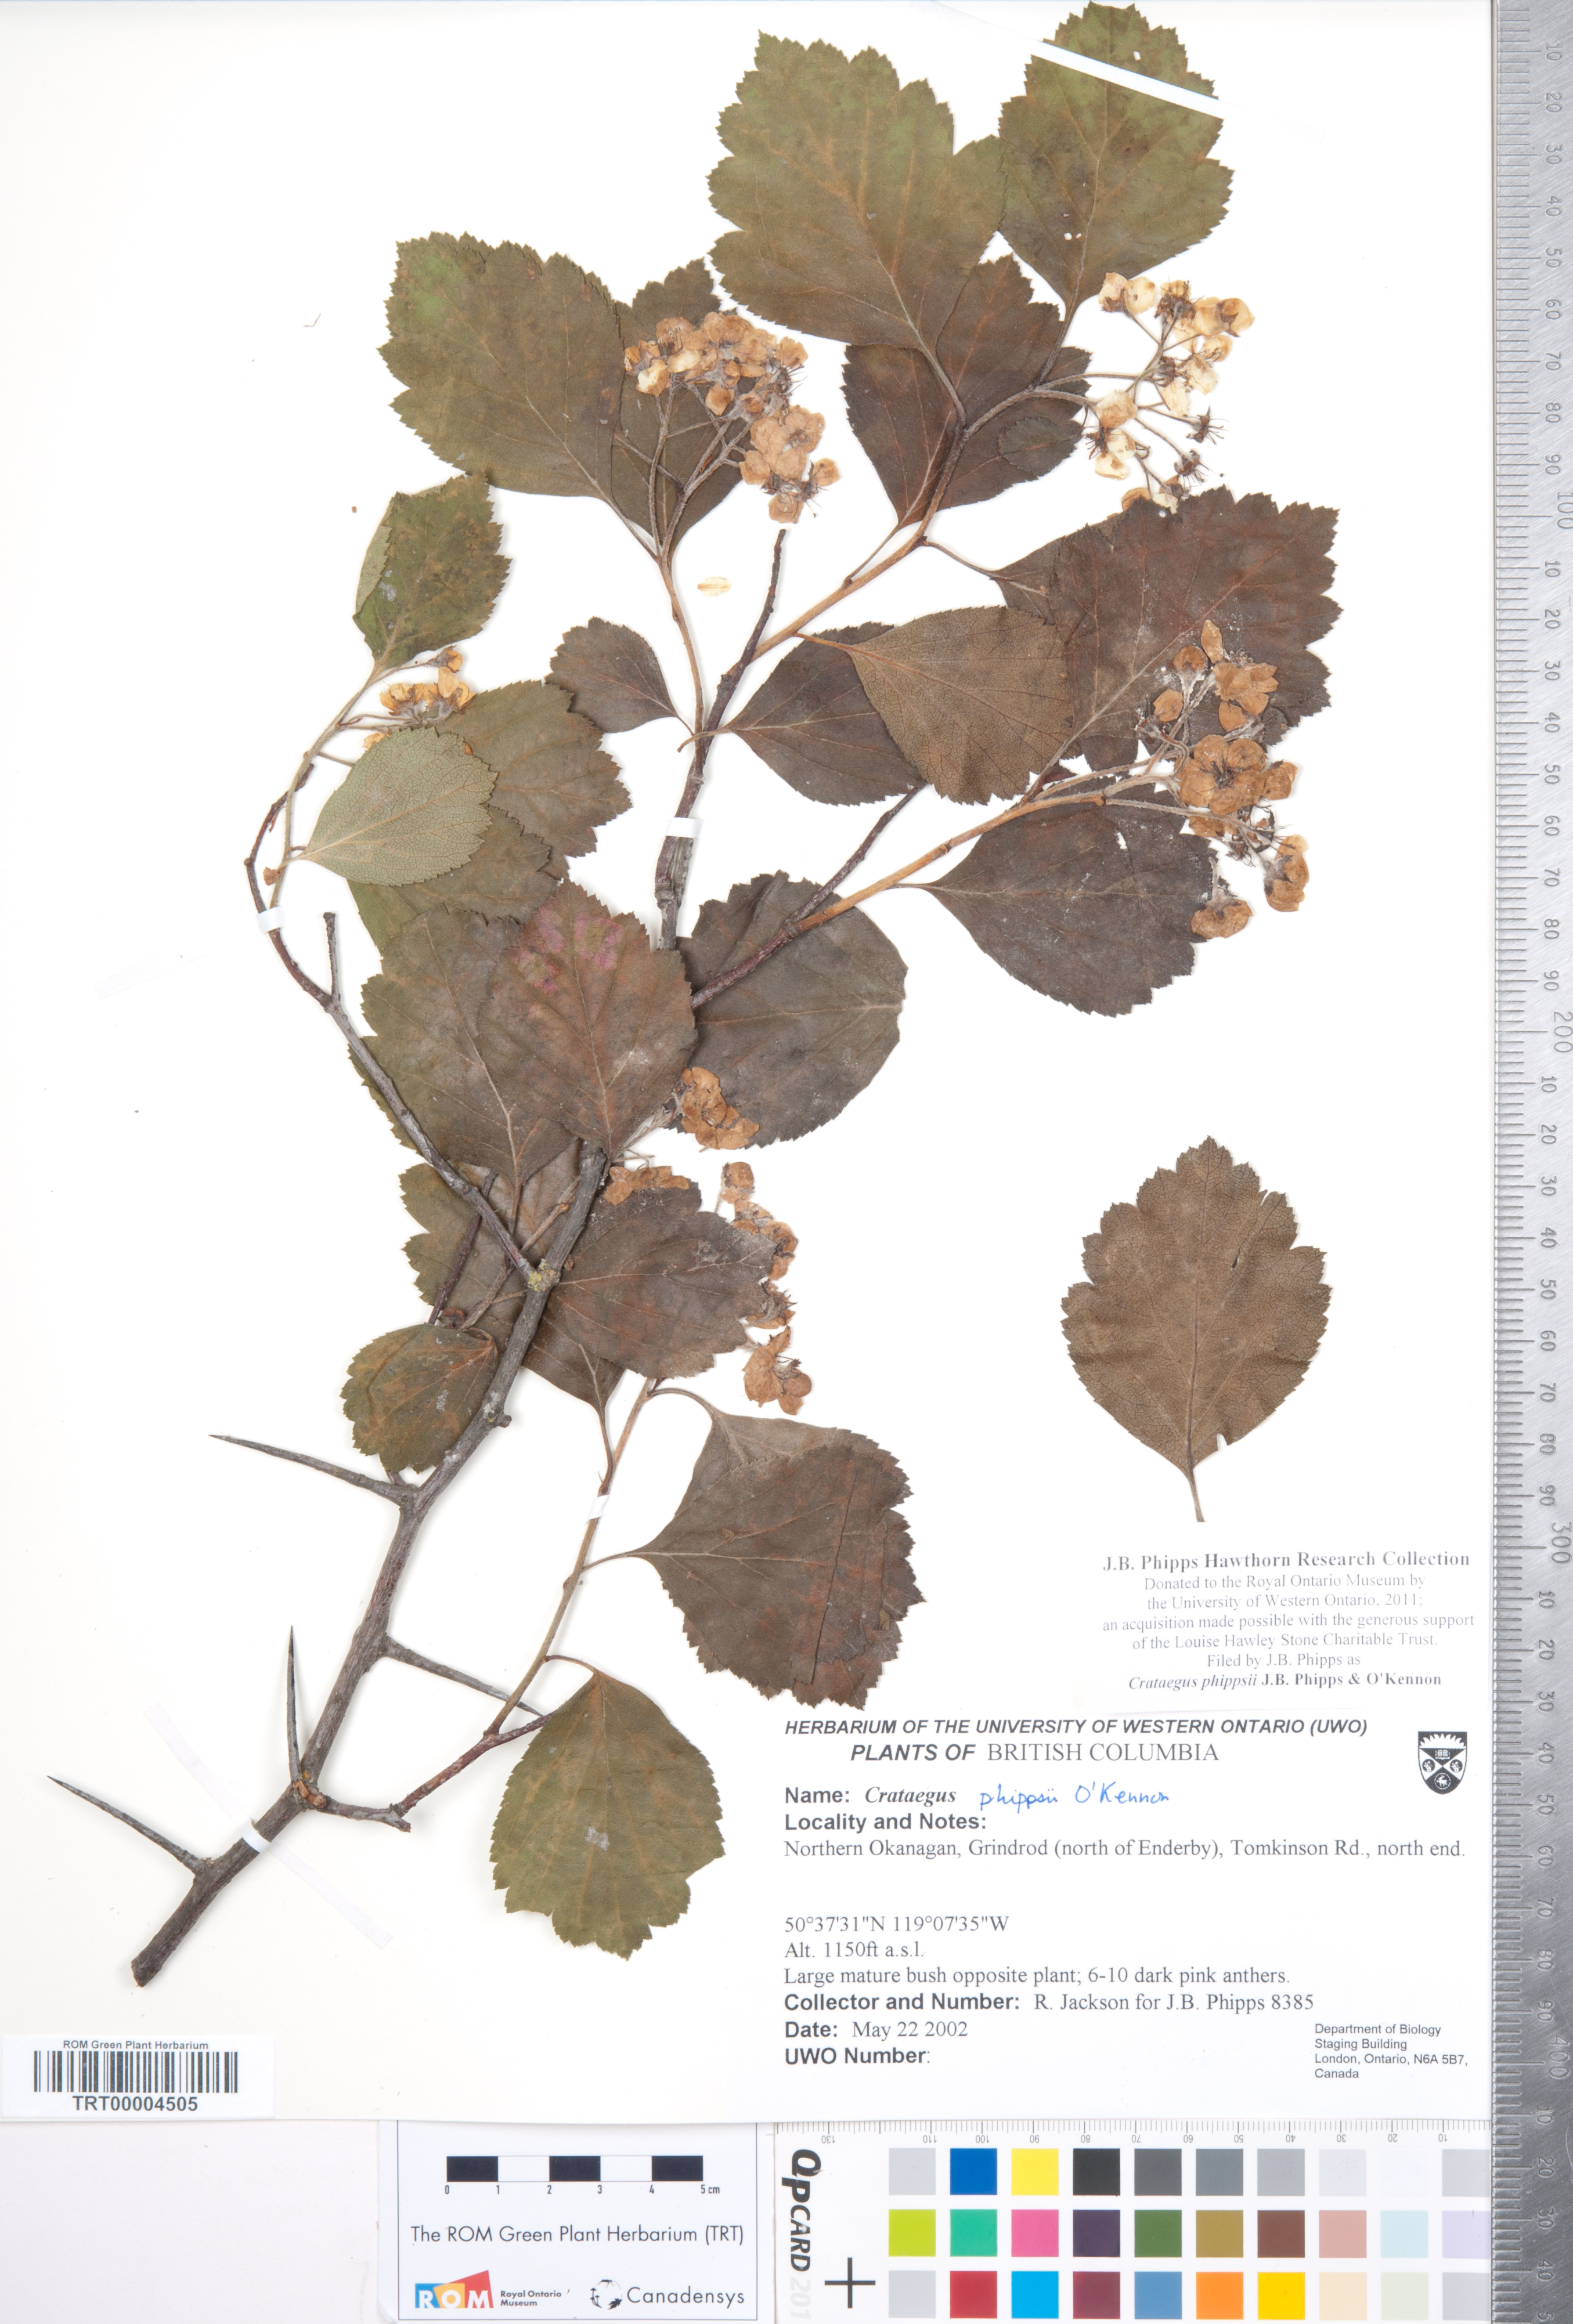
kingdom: Plantae
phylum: Tracheophyta
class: Magnoliopsida
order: Rosales
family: Rosaceae
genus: Crataegus
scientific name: Crataegus phippsii
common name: Phipps' hawthorn
